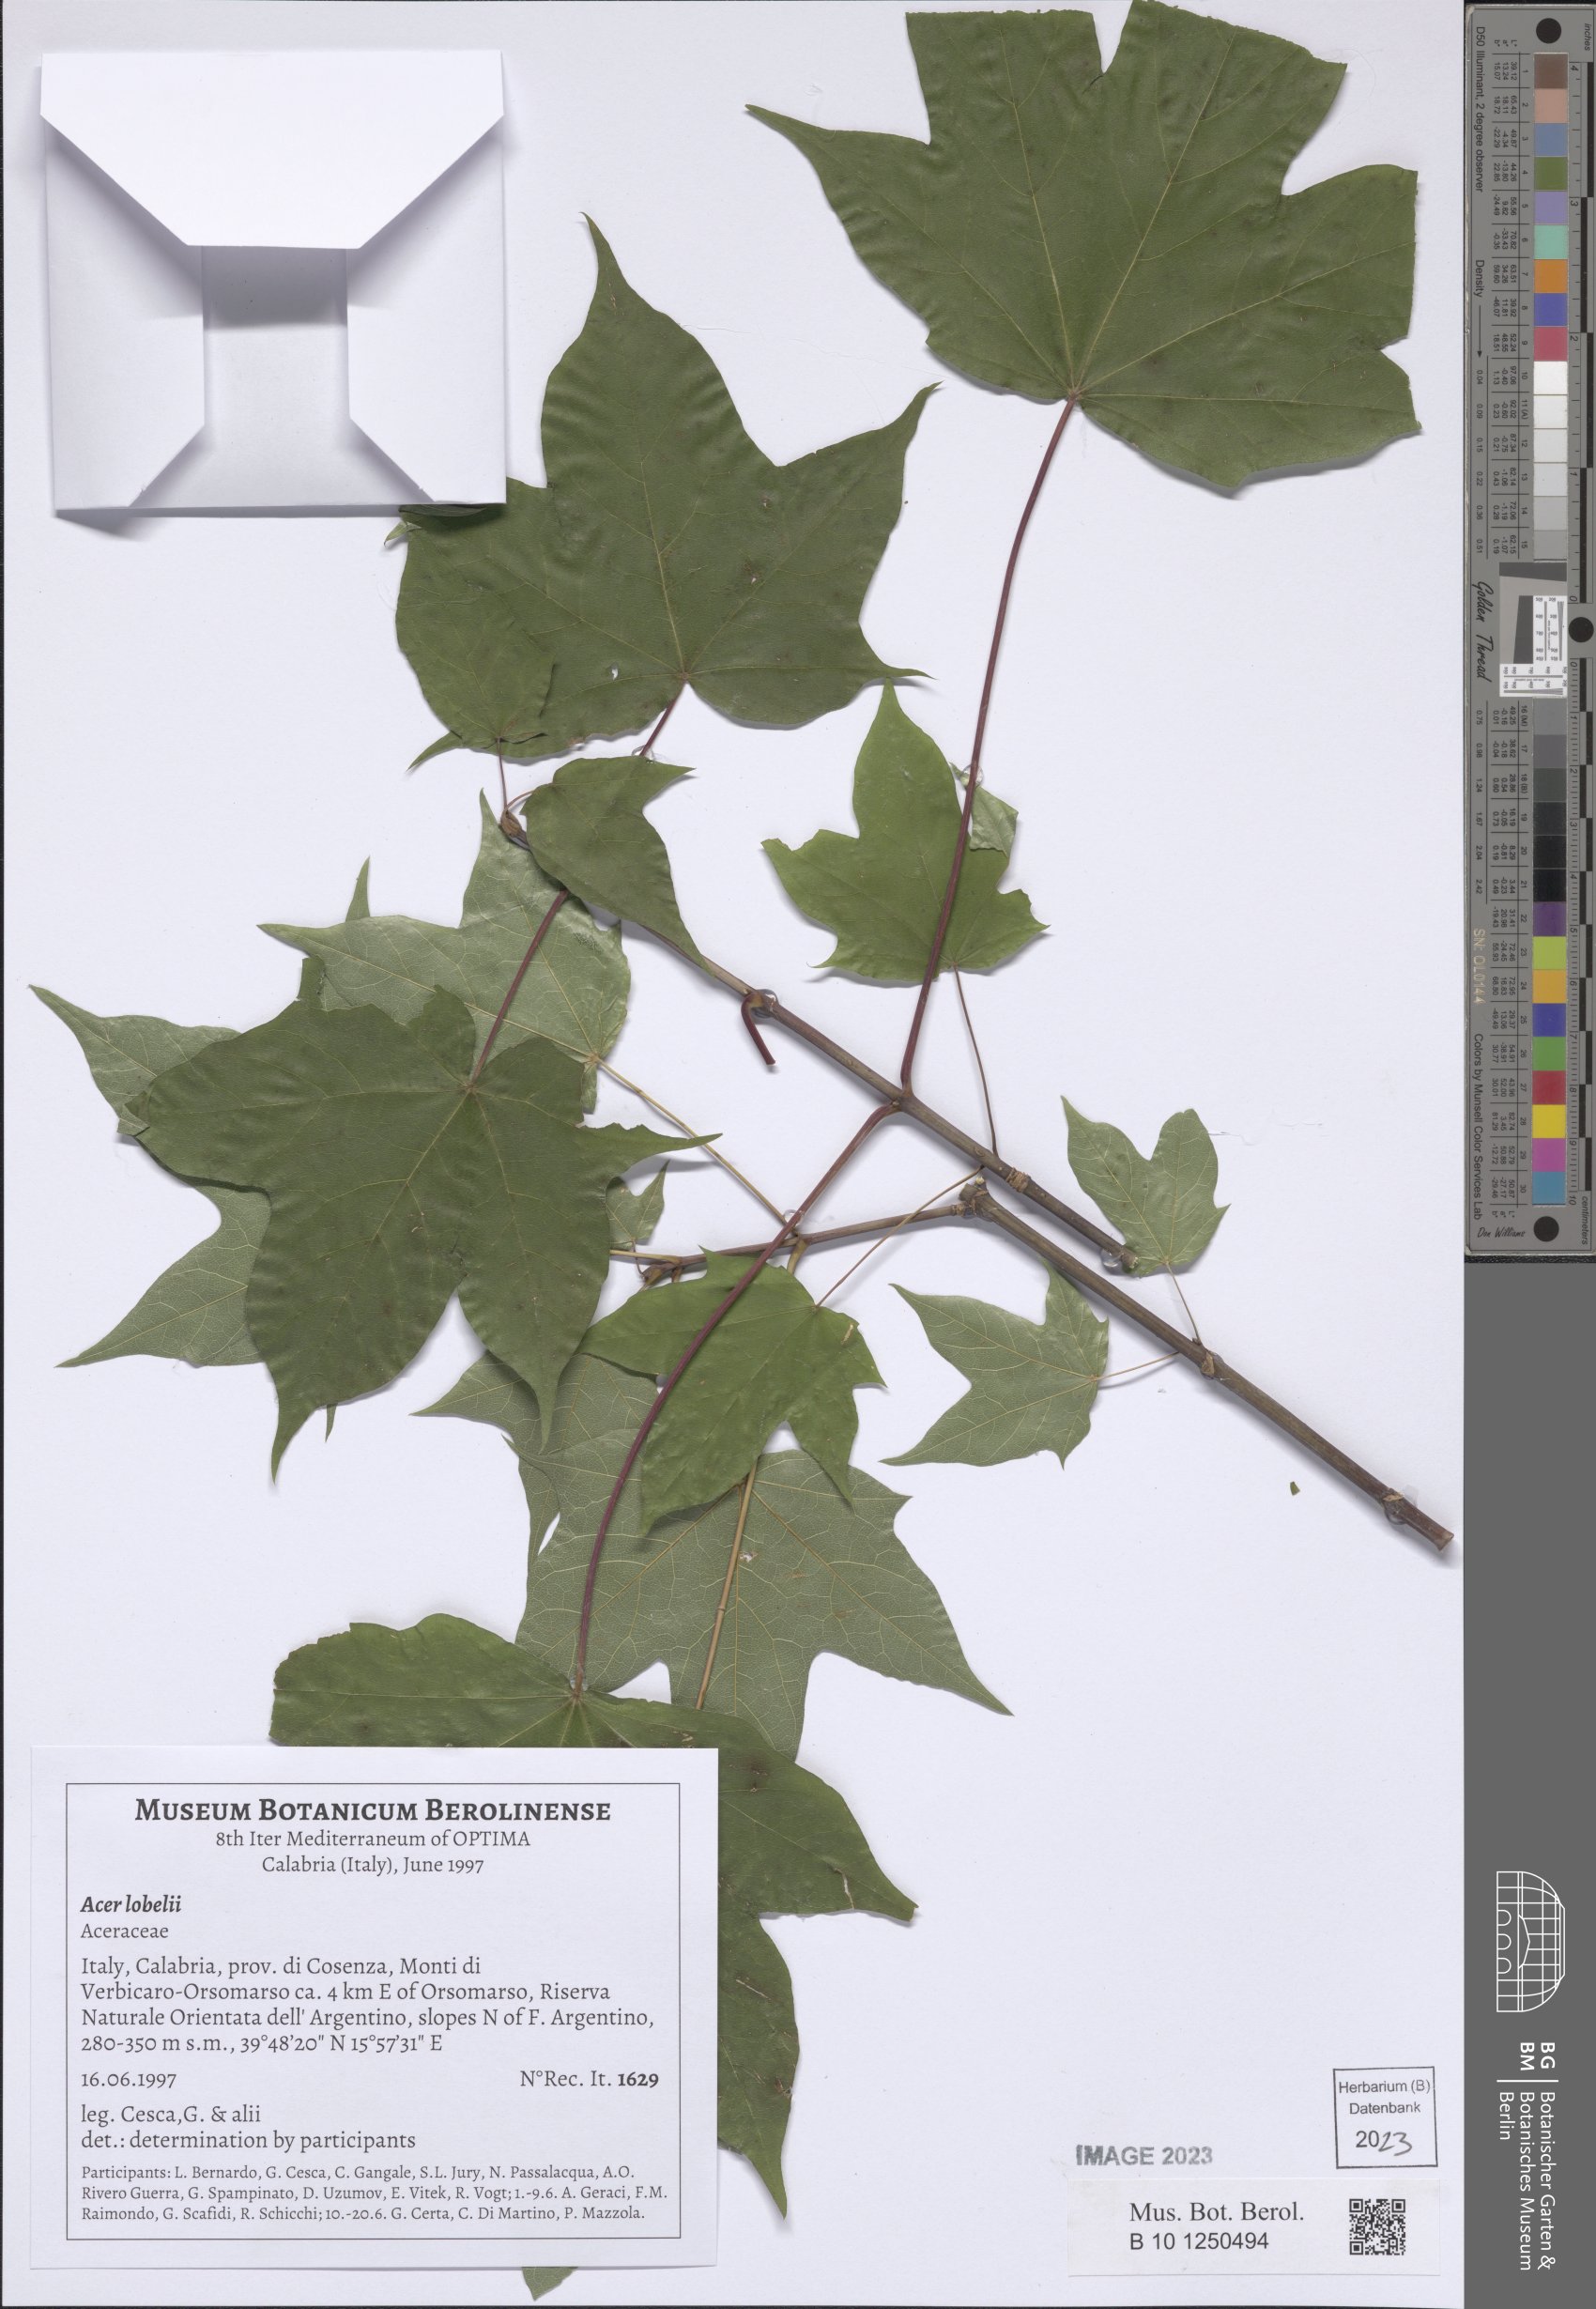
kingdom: Plantae
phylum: Tracheophyta
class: Magnoliopsida
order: Sapindales
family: Sapindaceae
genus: Acer
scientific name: Acer lobelii
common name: Lobel's maple
